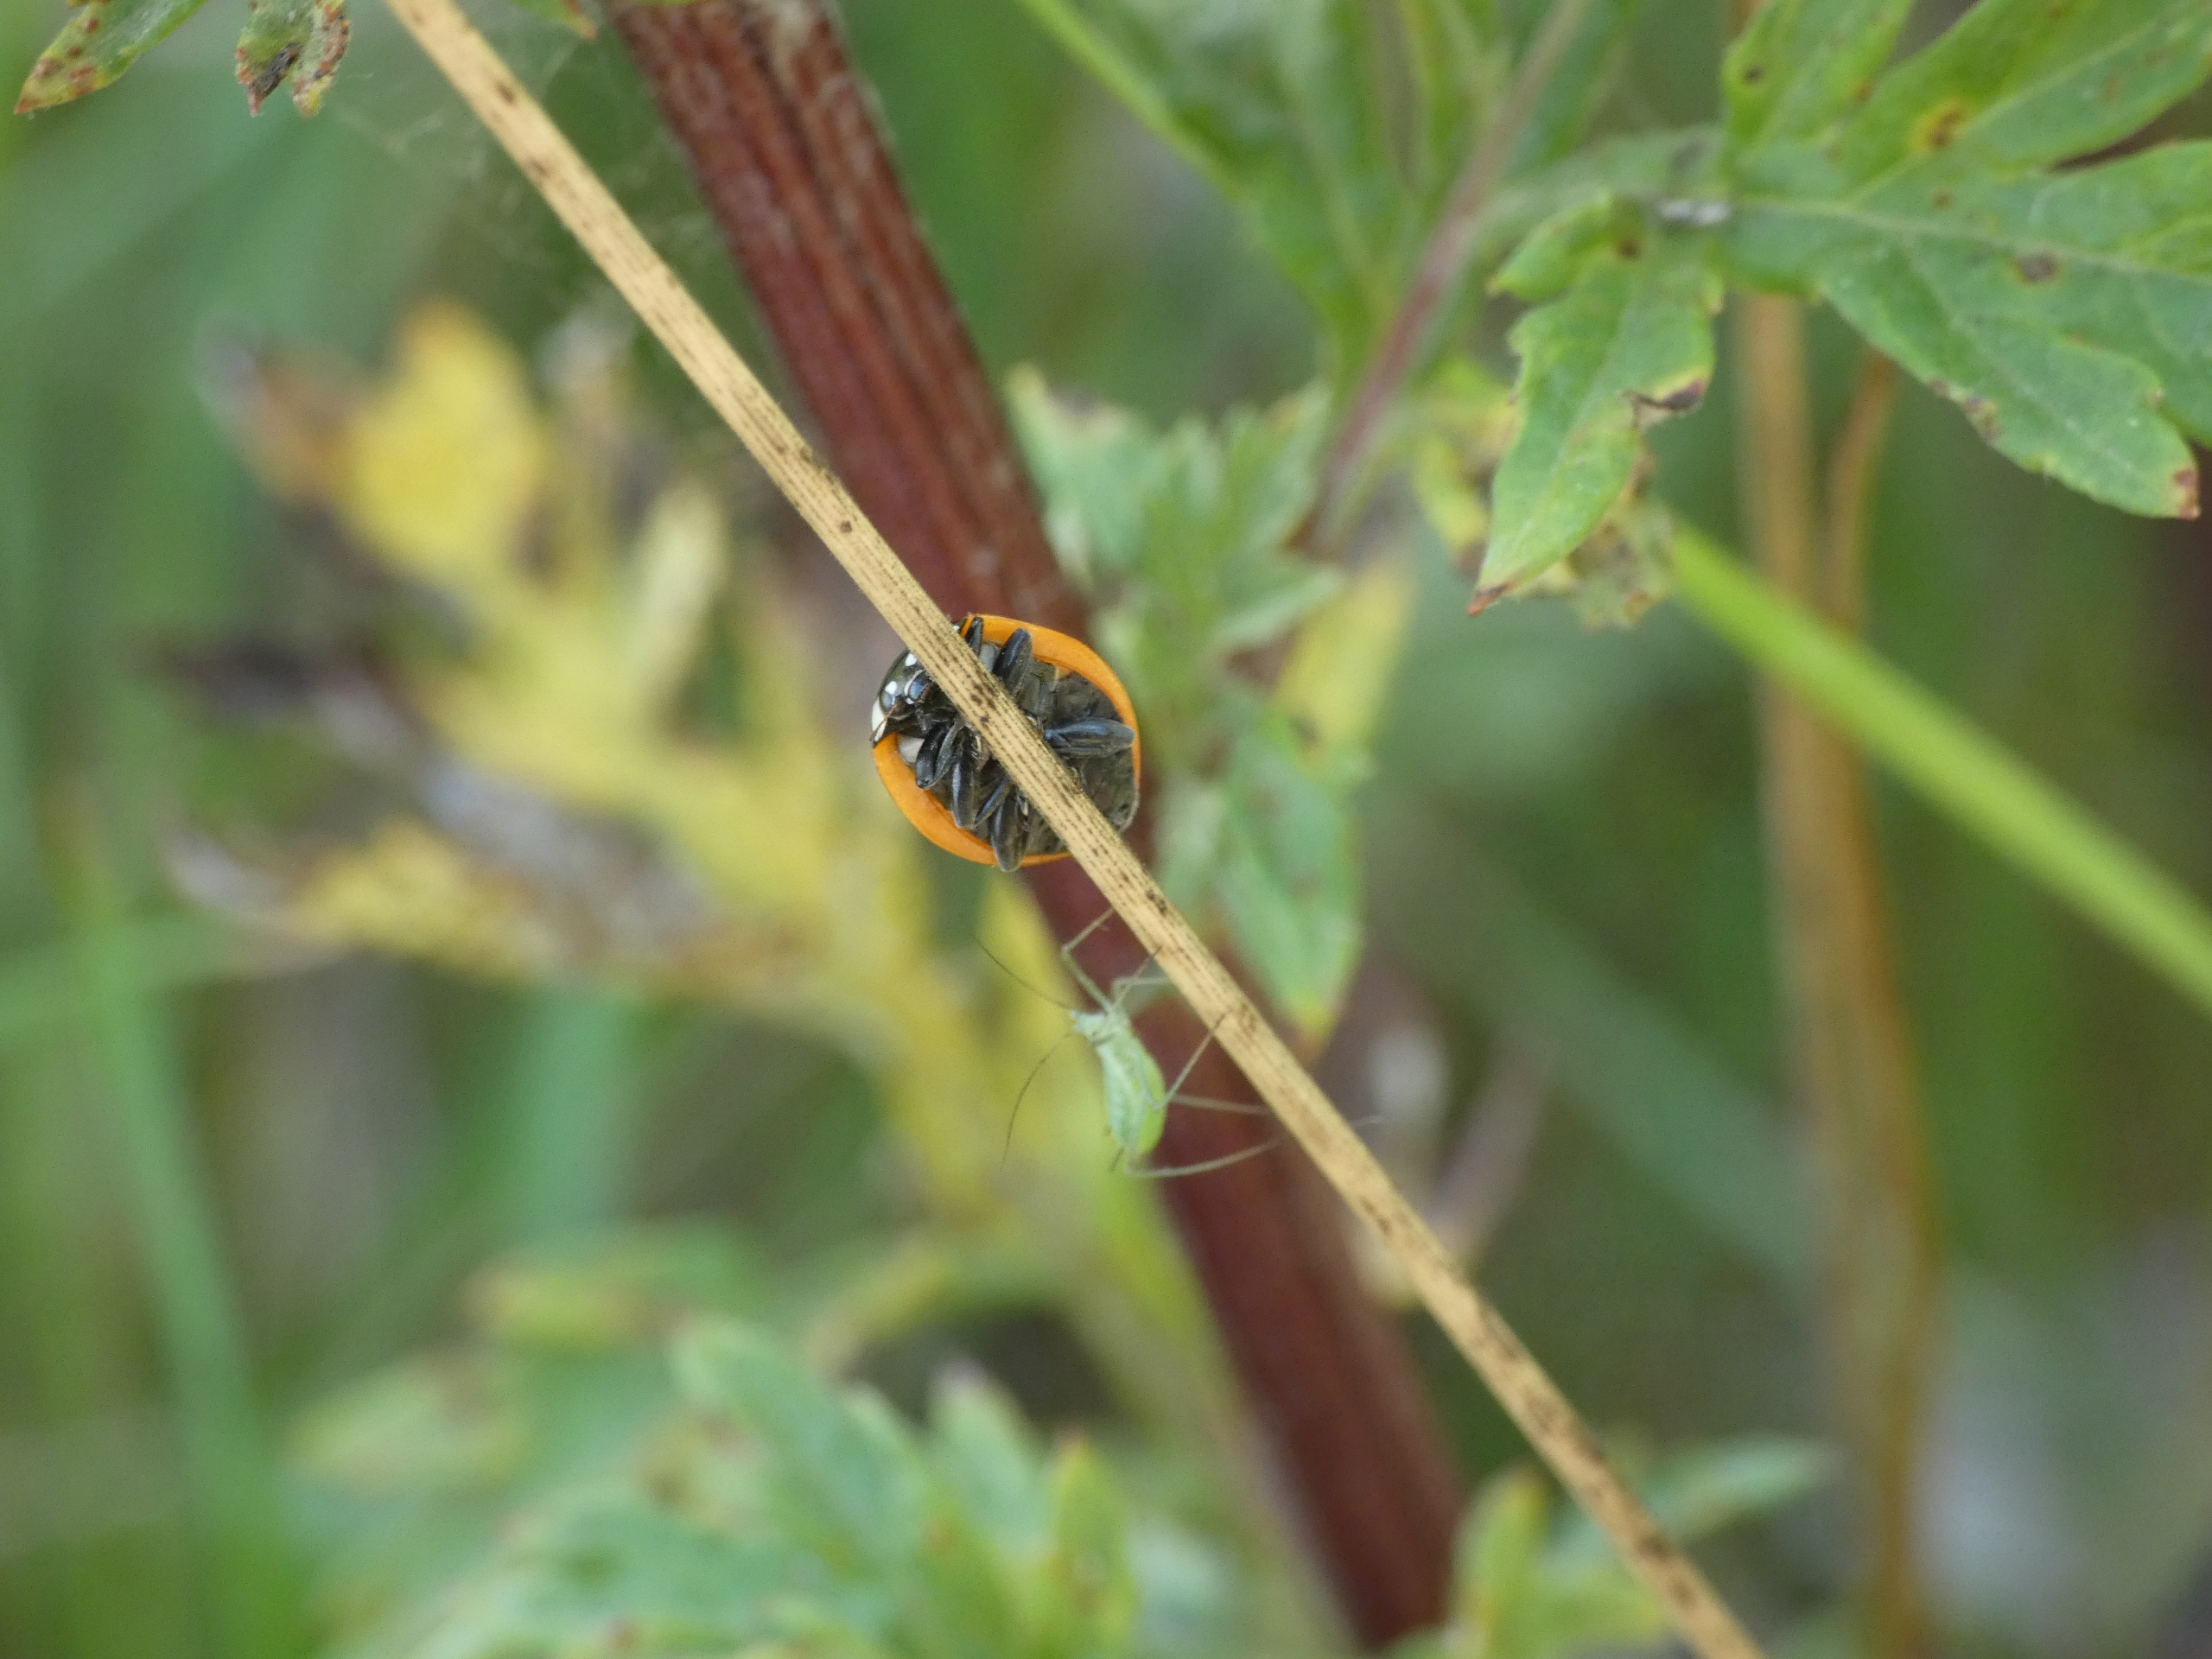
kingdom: Animalia
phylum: Arthropoda
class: Insecta
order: Coleoptera
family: Coccinellidae
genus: Coccinella
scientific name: Coccinella septempunctata
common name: Syvplettet mariehøne
